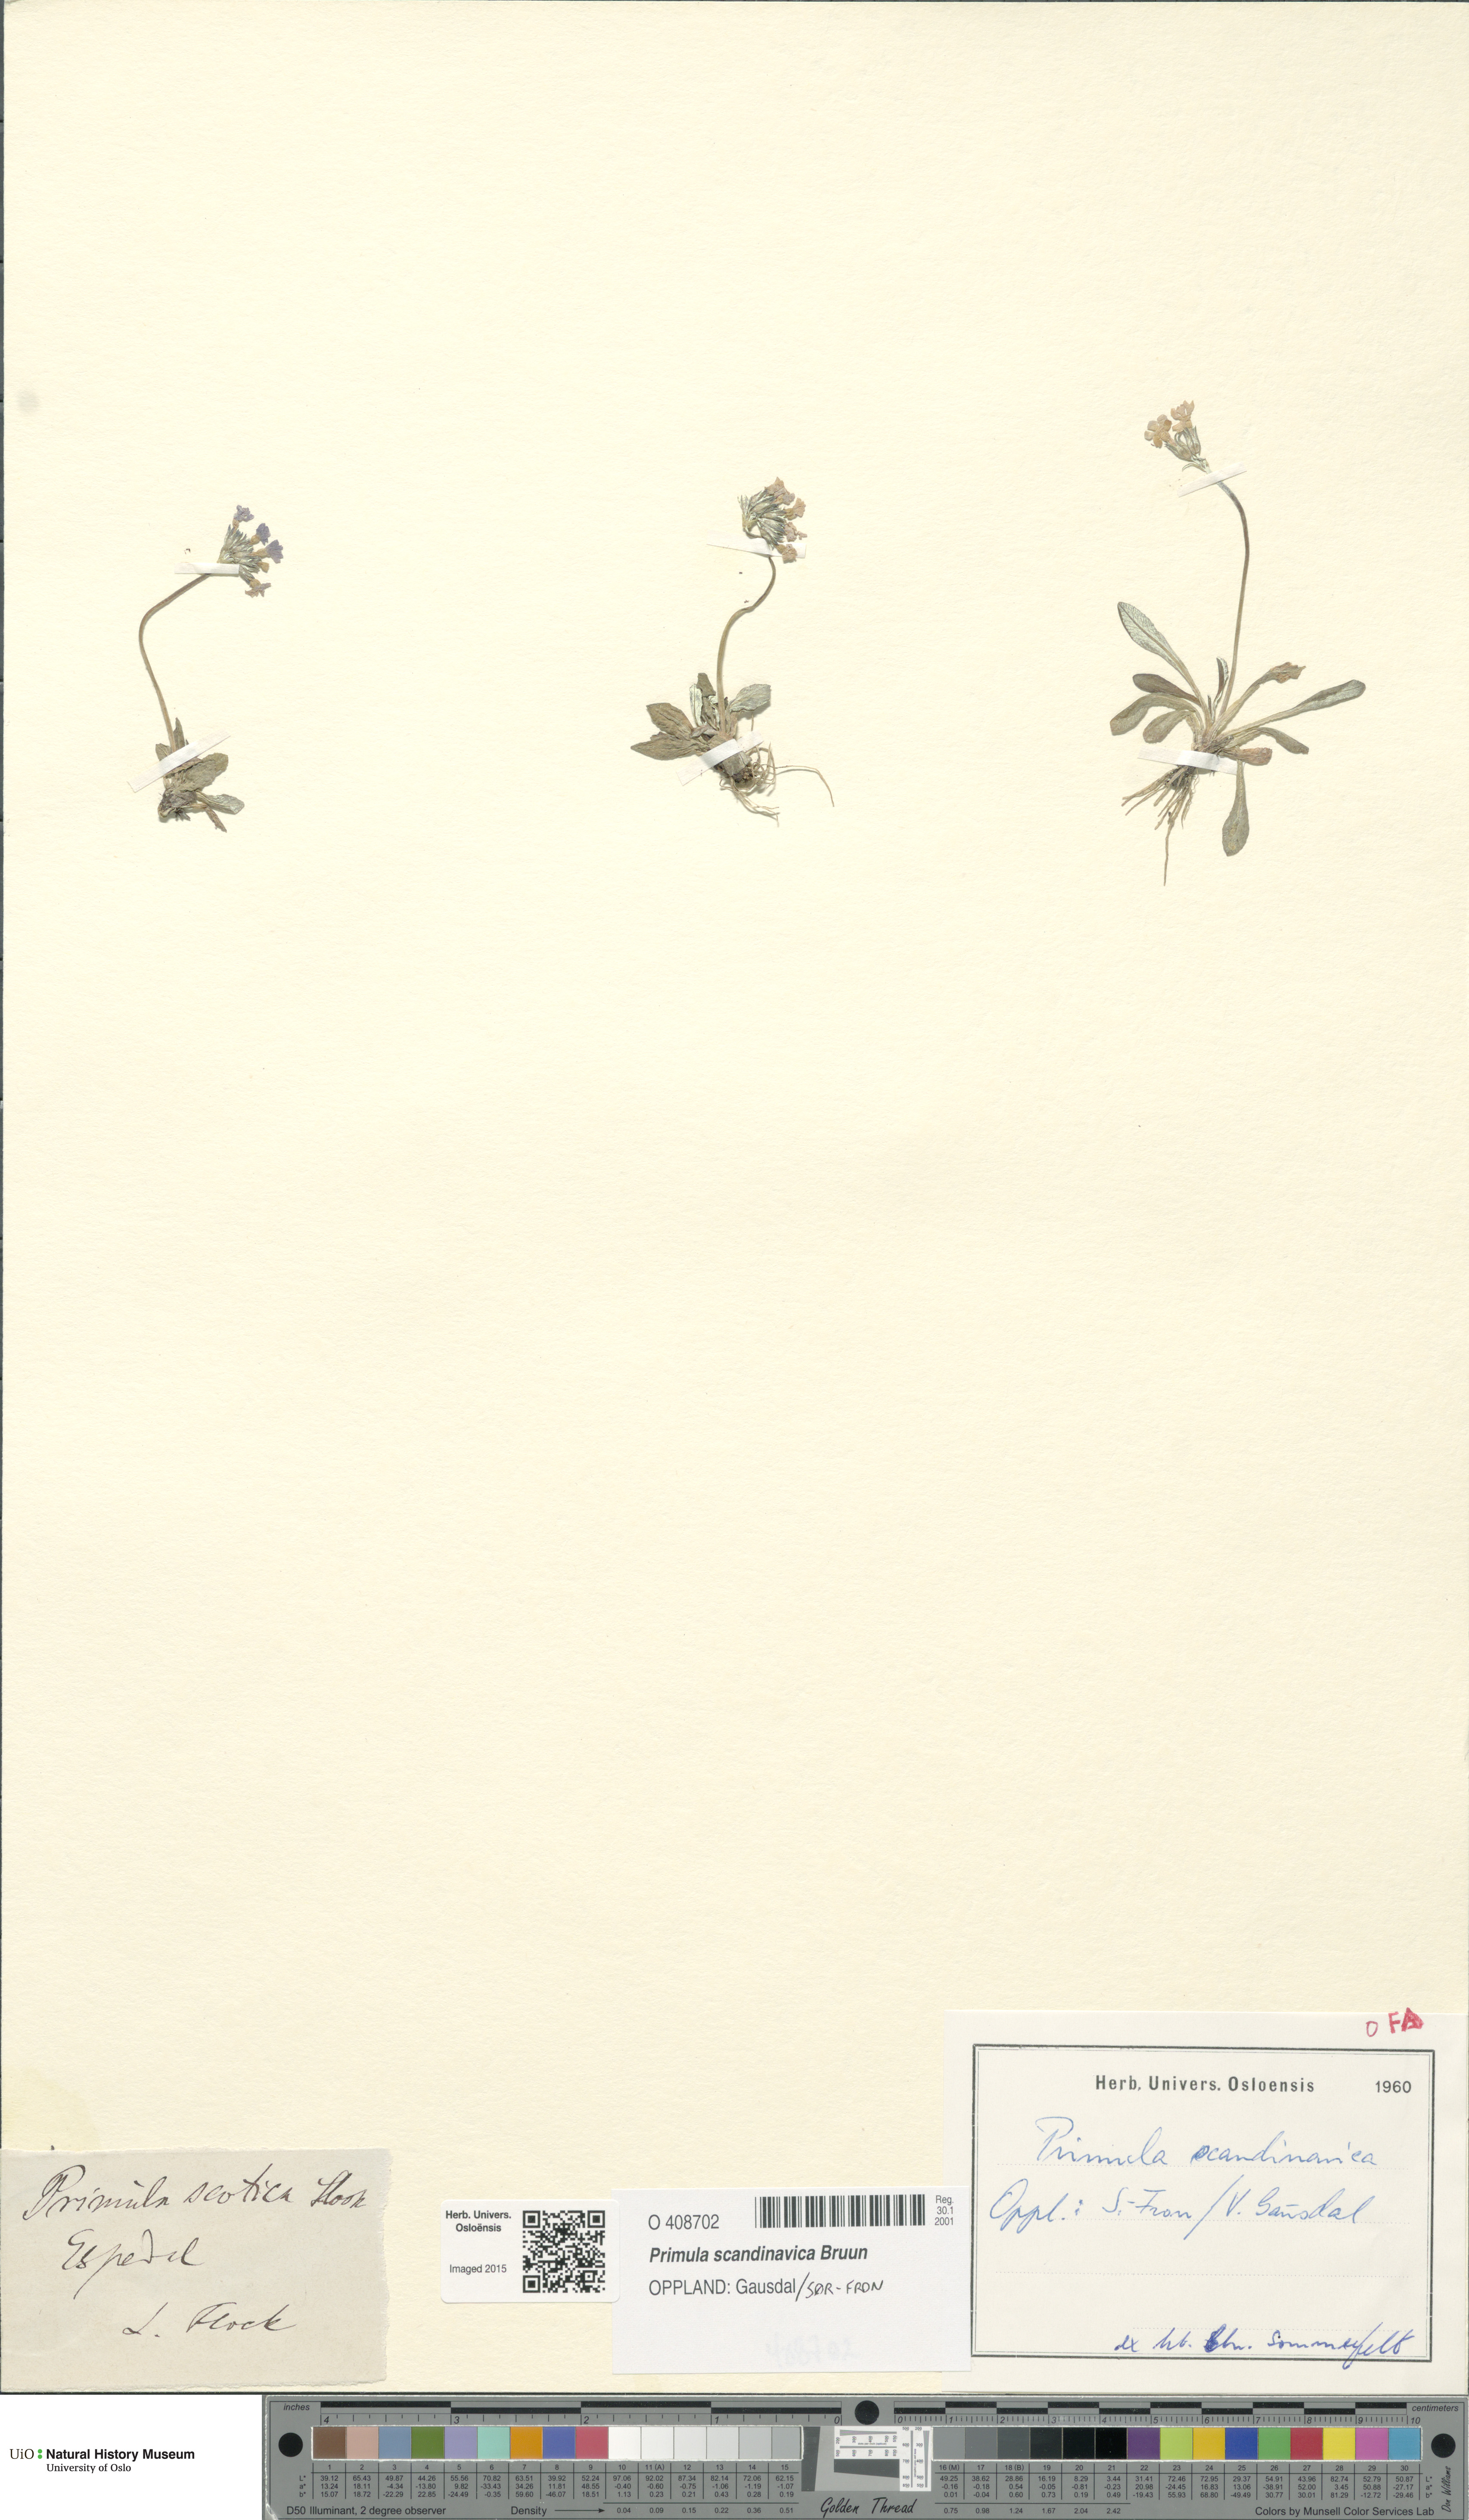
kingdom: Plantae
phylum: Tracheophyta
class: Magnoliopsida
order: Ericales
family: Primulaceae
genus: Primula
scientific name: Primula scandinavica
